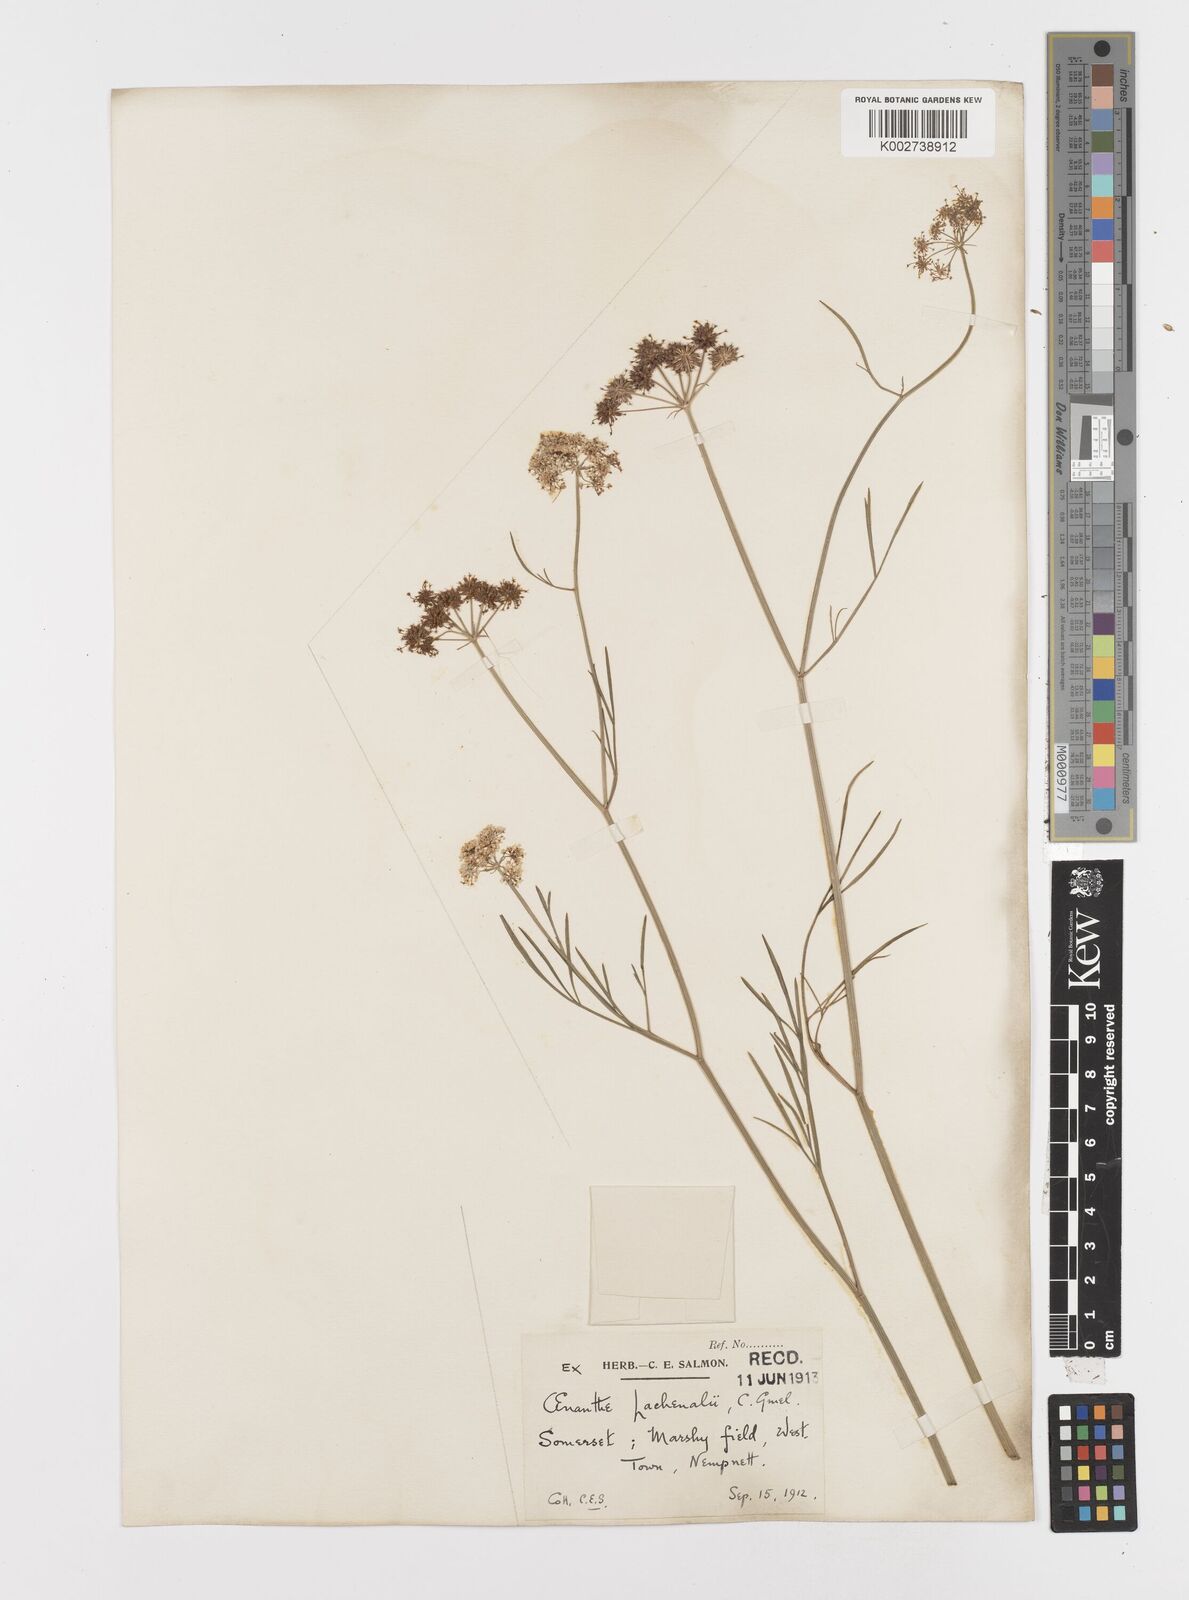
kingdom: Plantae
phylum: Tracheophyta
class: Magnoliopsida
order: Apiales
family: Apiaceae
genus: Oenanthe
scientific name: Oenanthe lachenalii
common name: Parsley water-dropwort
